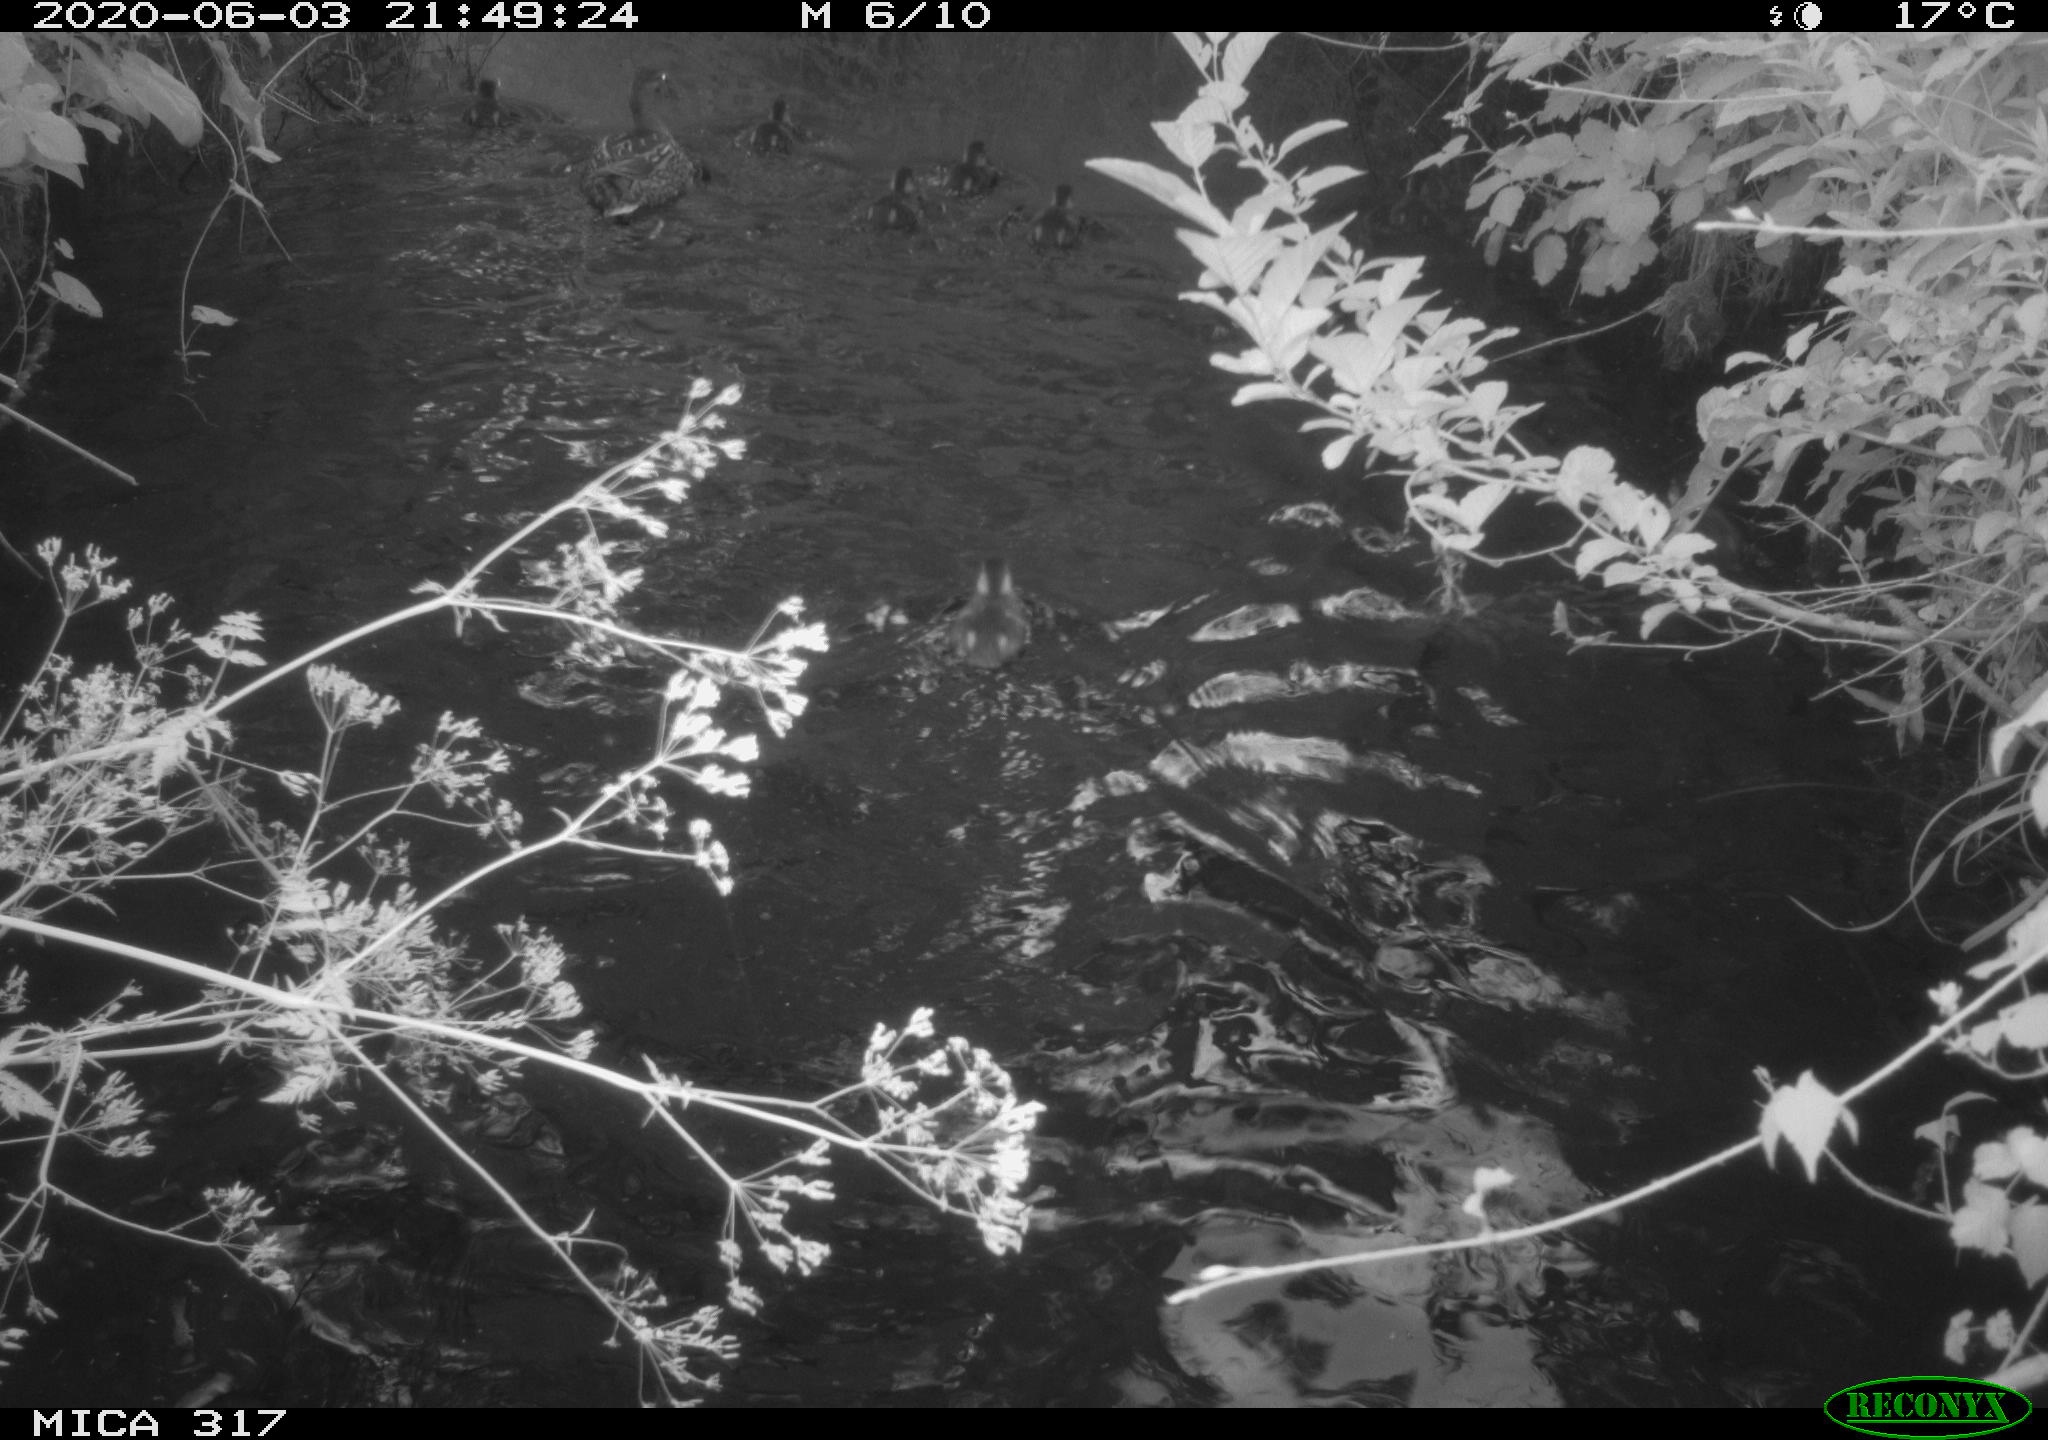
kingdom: Animalia
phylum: Chordata
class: Aves
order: Anseriformes
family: Anatidae
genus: Anas
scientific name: Anas platyrhynchos
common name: Mallard
